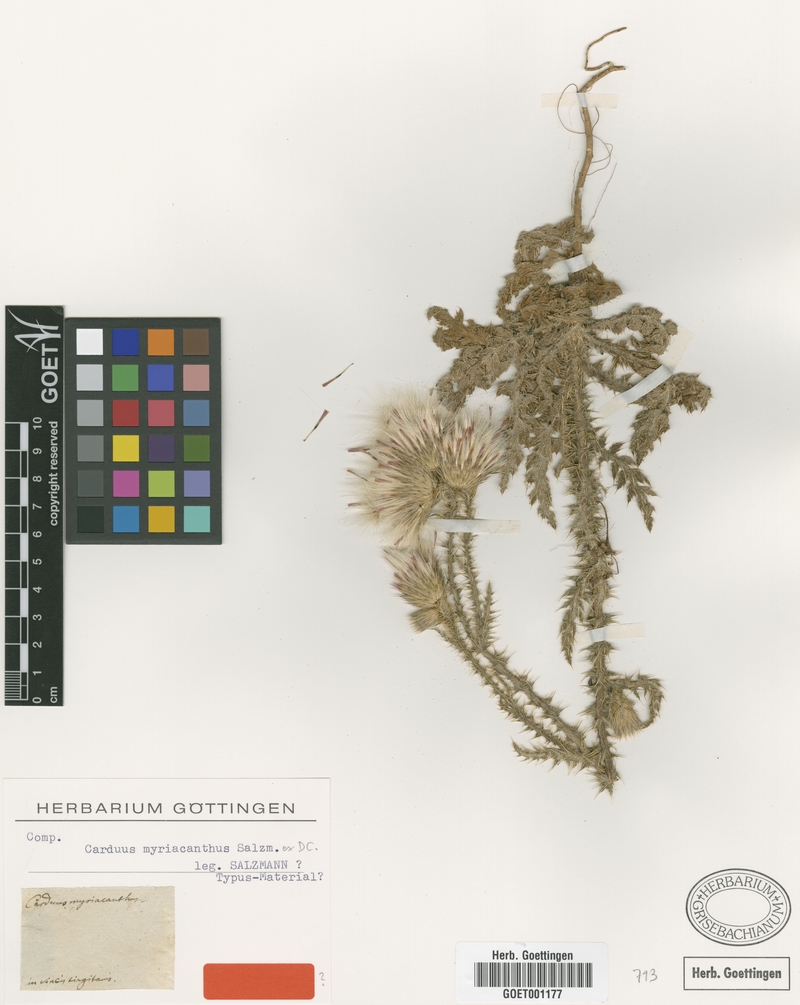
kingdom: Plantae
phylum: Tracheophyta
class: Magnoliopsida
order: Asterales
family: Asteraceae
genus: Carduus
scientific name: Carduus myriacanthus
